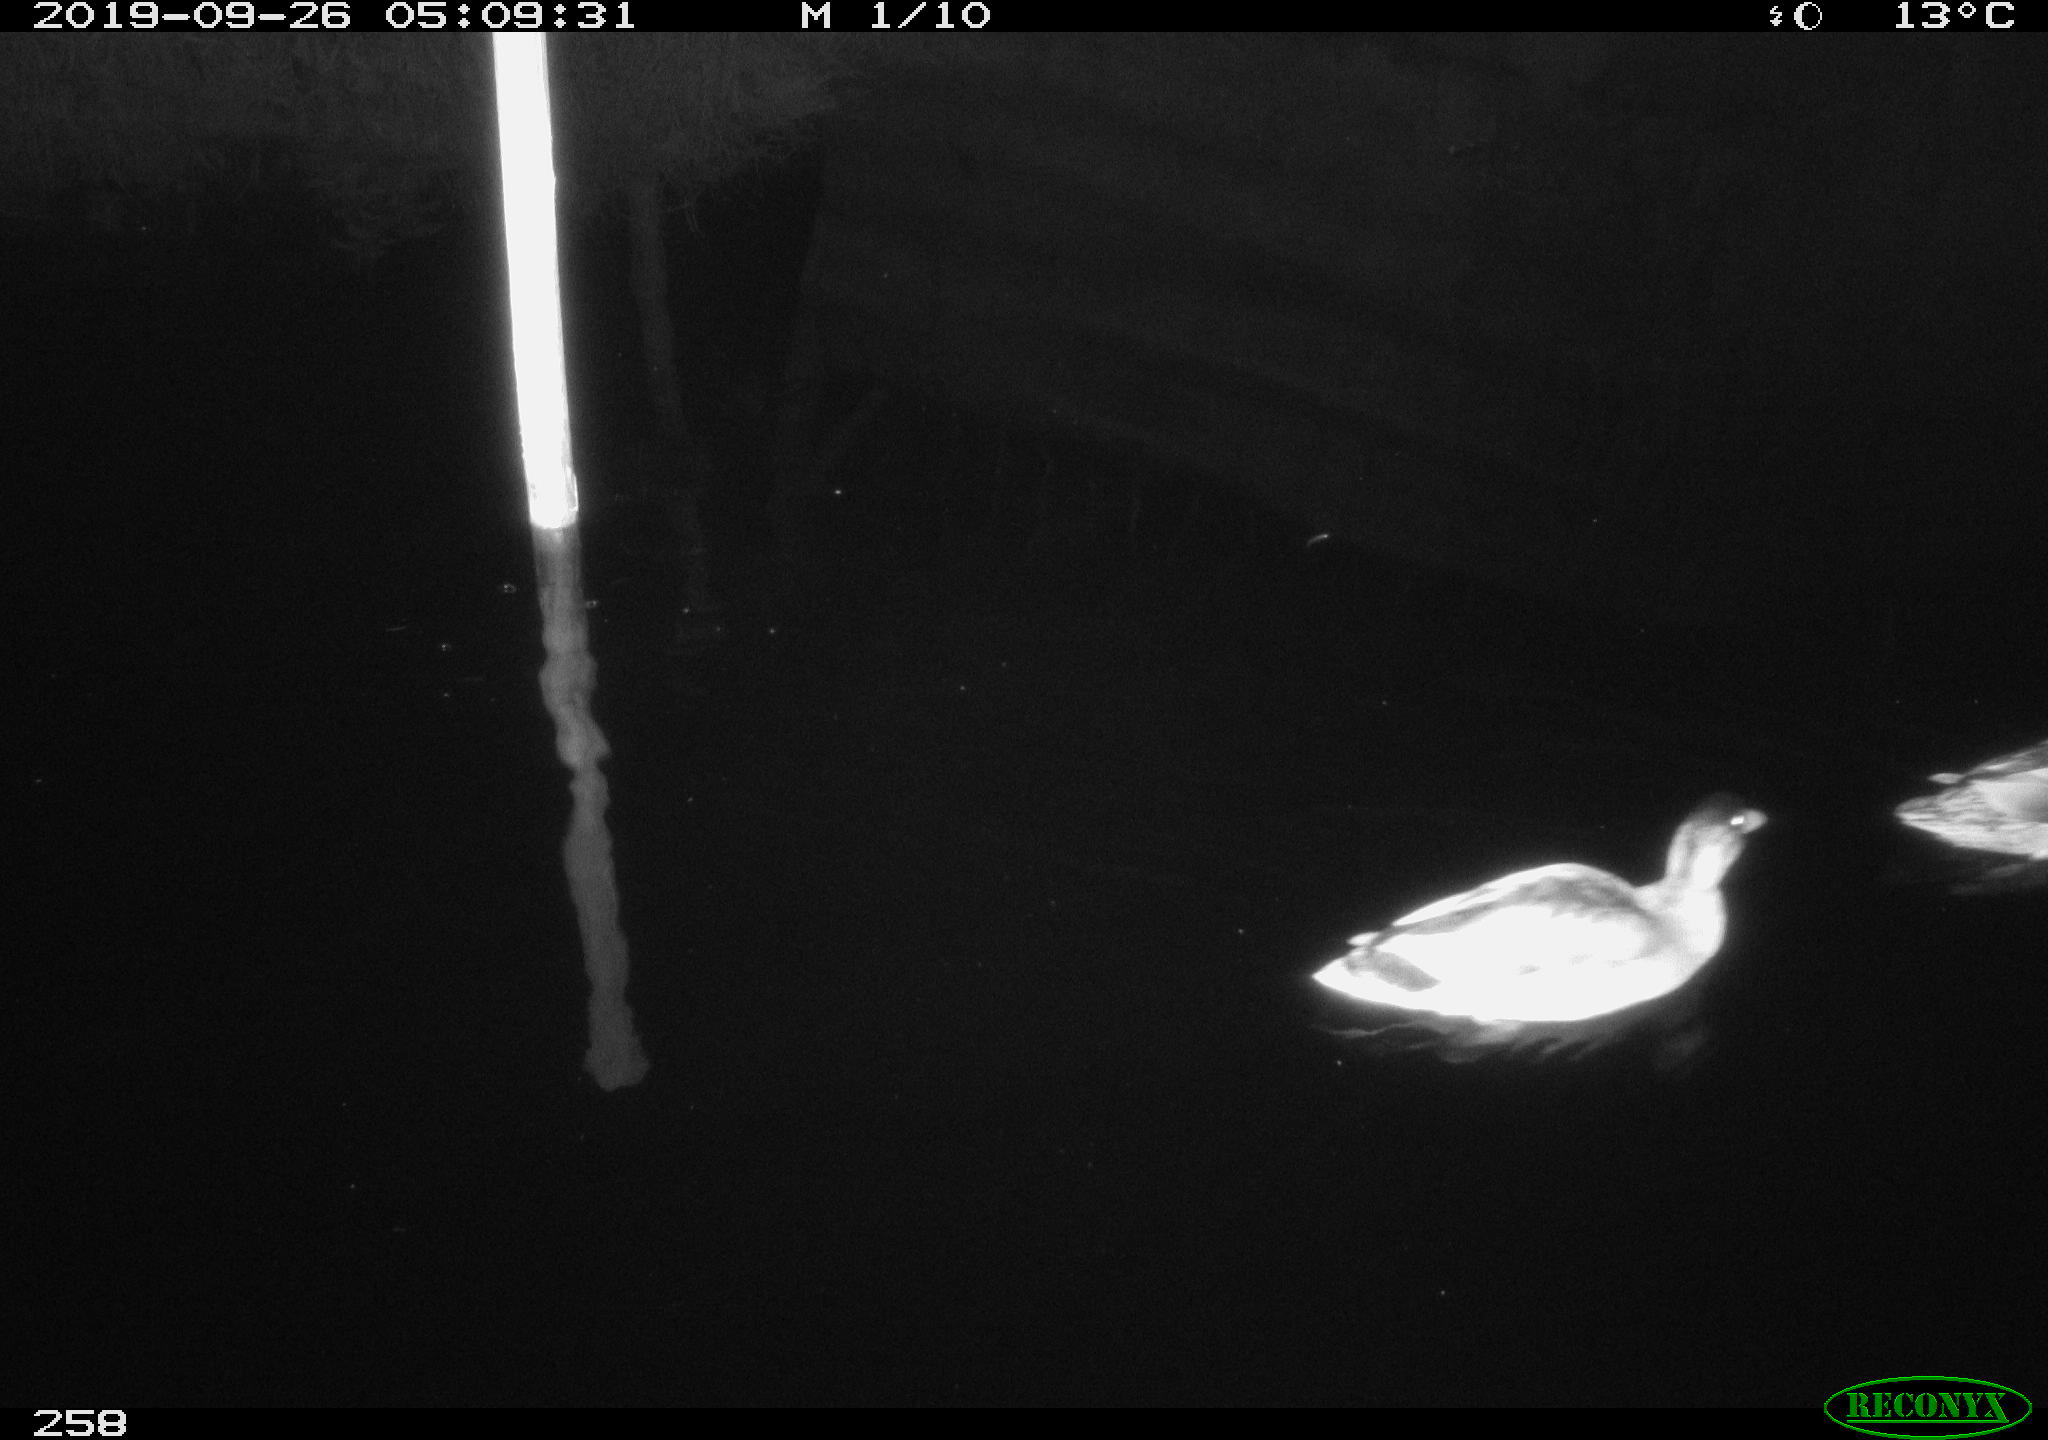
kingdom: Animalia
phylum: Chordata
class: Aves
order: Anseriformes
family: Anatidae
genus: Anas
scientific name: Anas platyrhynchos
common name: Mallard
